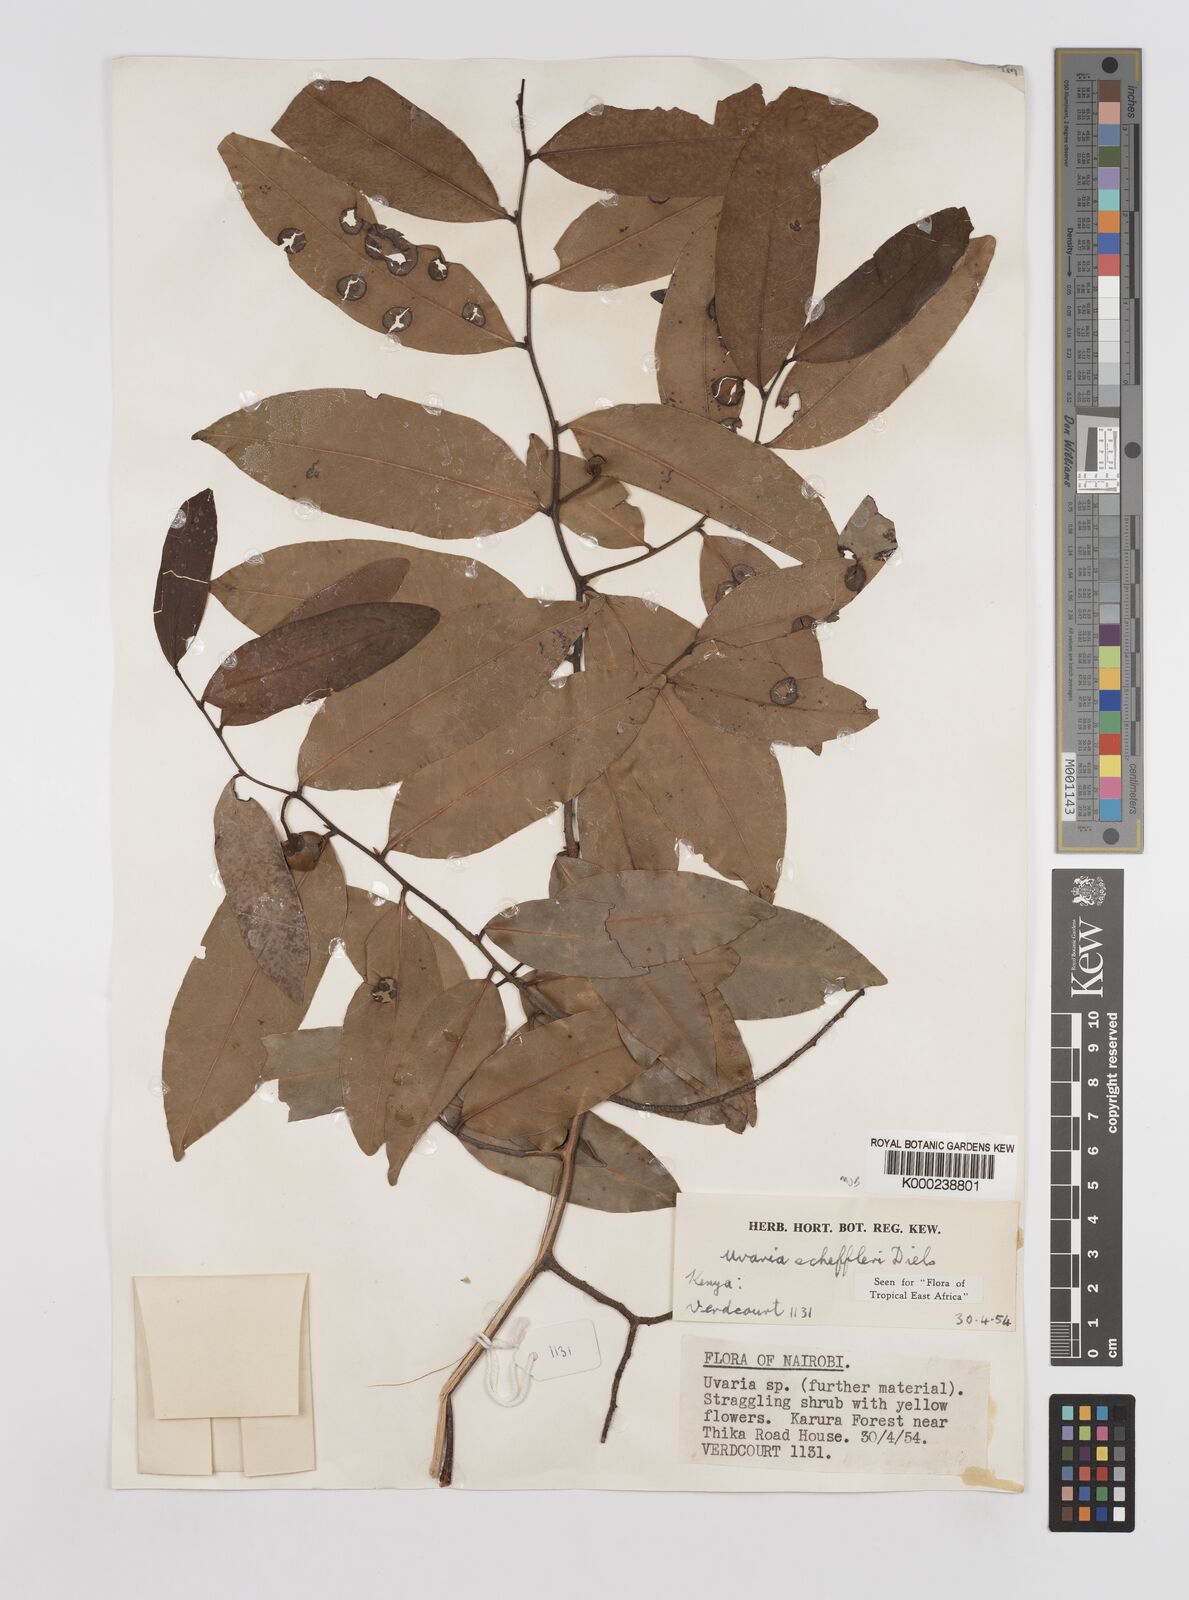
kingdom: Plantae
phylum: Tracheophyta
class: Magnoliopsida
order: Magnoliales
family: Annonaceae
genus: Uvaria
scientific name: Uvaria scheffleri
